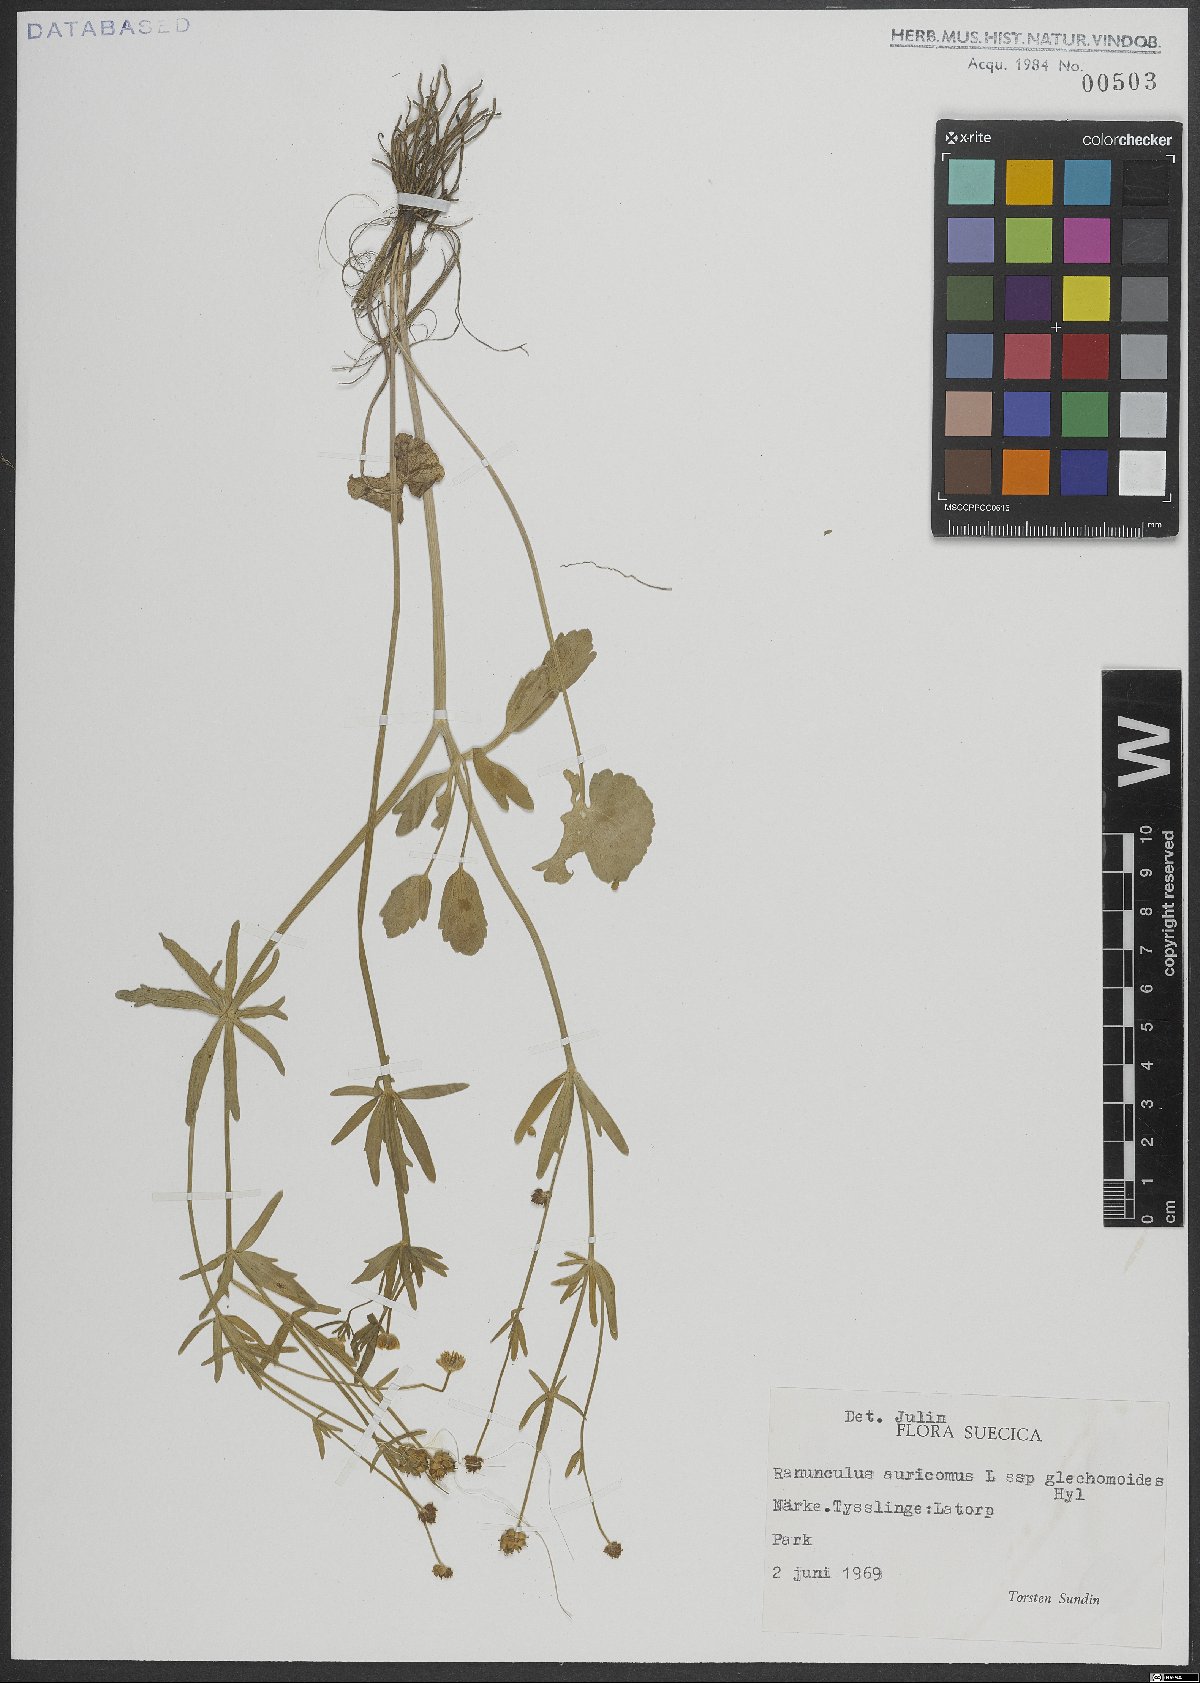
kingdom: Plantae
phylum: Tracheophyta
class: Magnoliopsida
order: Ranunculales
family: Ranunculaceae
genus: Ranunculus
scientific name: Ranunculus auricomus
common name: Goldilocks buttercup
